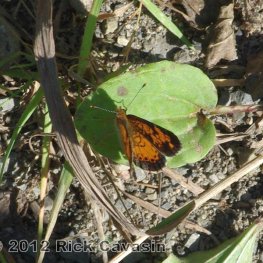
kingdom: Animalia
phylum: Arthropoda
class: Insecta
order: Lepidoptera
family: Nymphalidae
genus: Phyciodes
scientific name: Phyciodes tharos
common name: Northern Crescent
